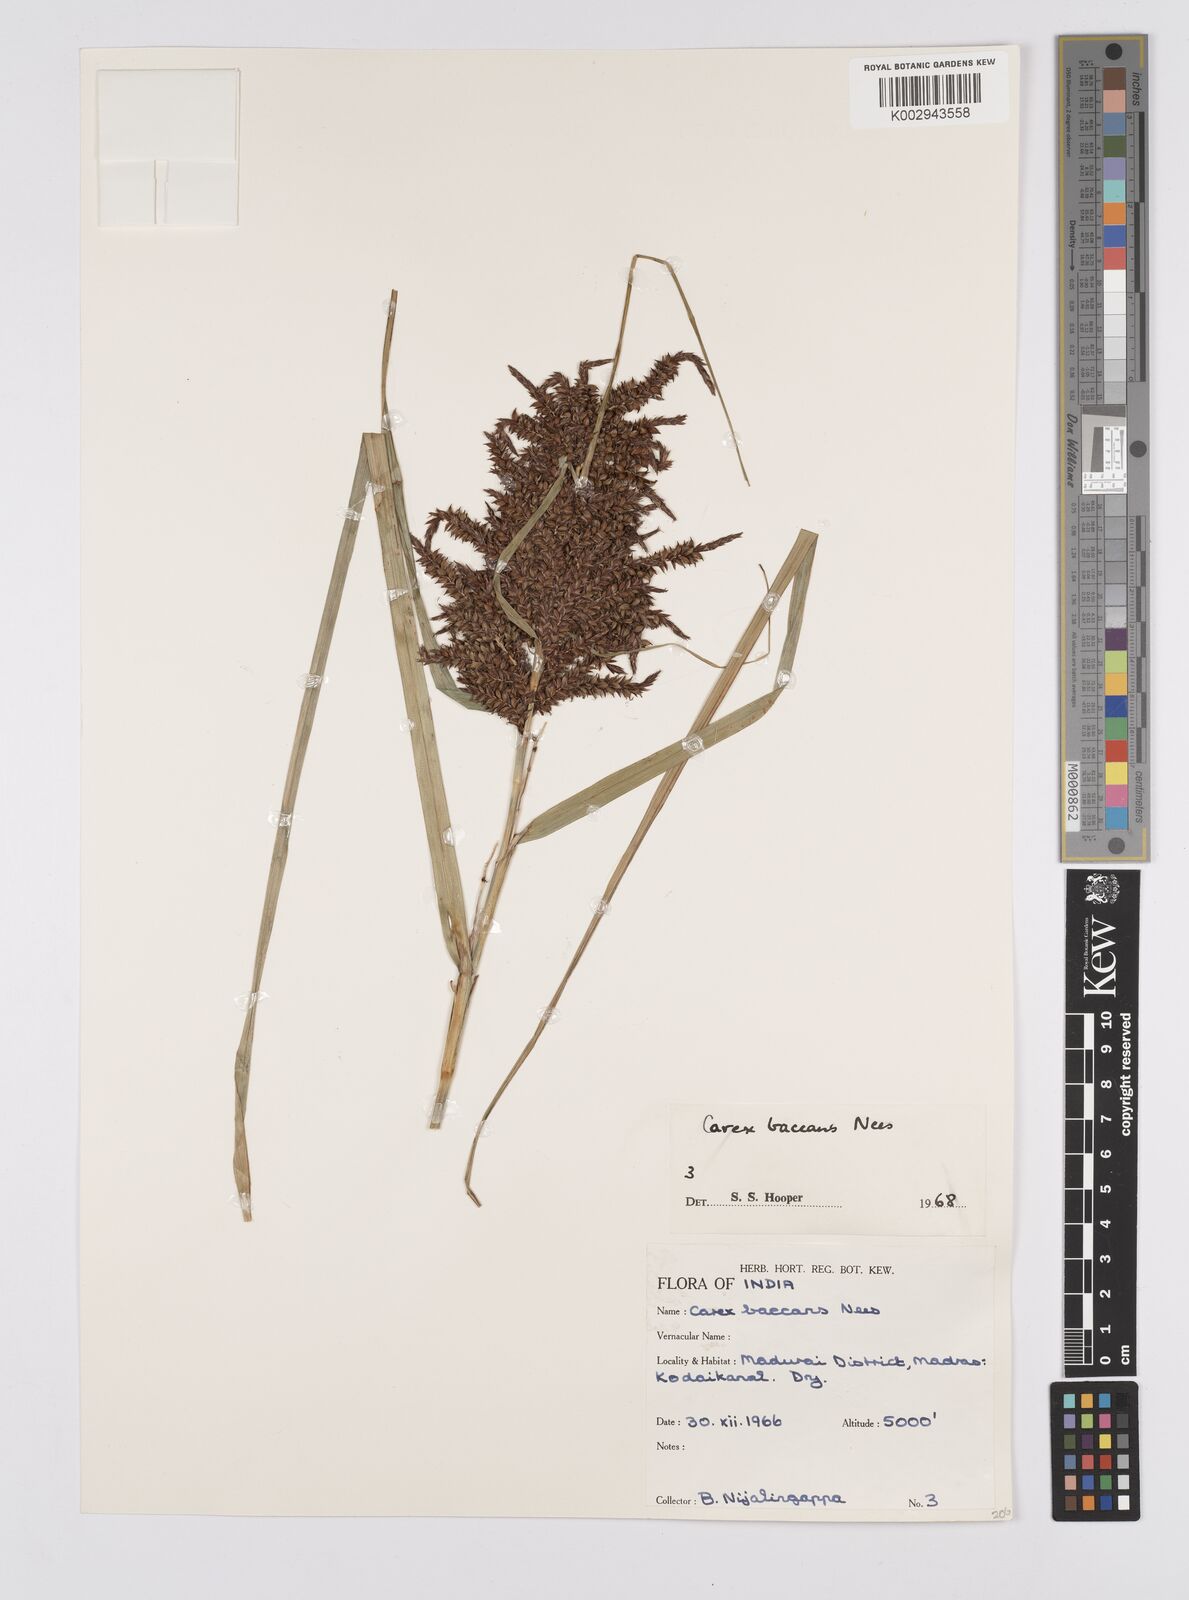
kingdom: Plantae
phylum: Tracheophyta
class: Liliopsida
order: Poales
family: Cyperaceae
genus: Carex
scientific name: Carex baccans
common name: Crimson seeded sedge
